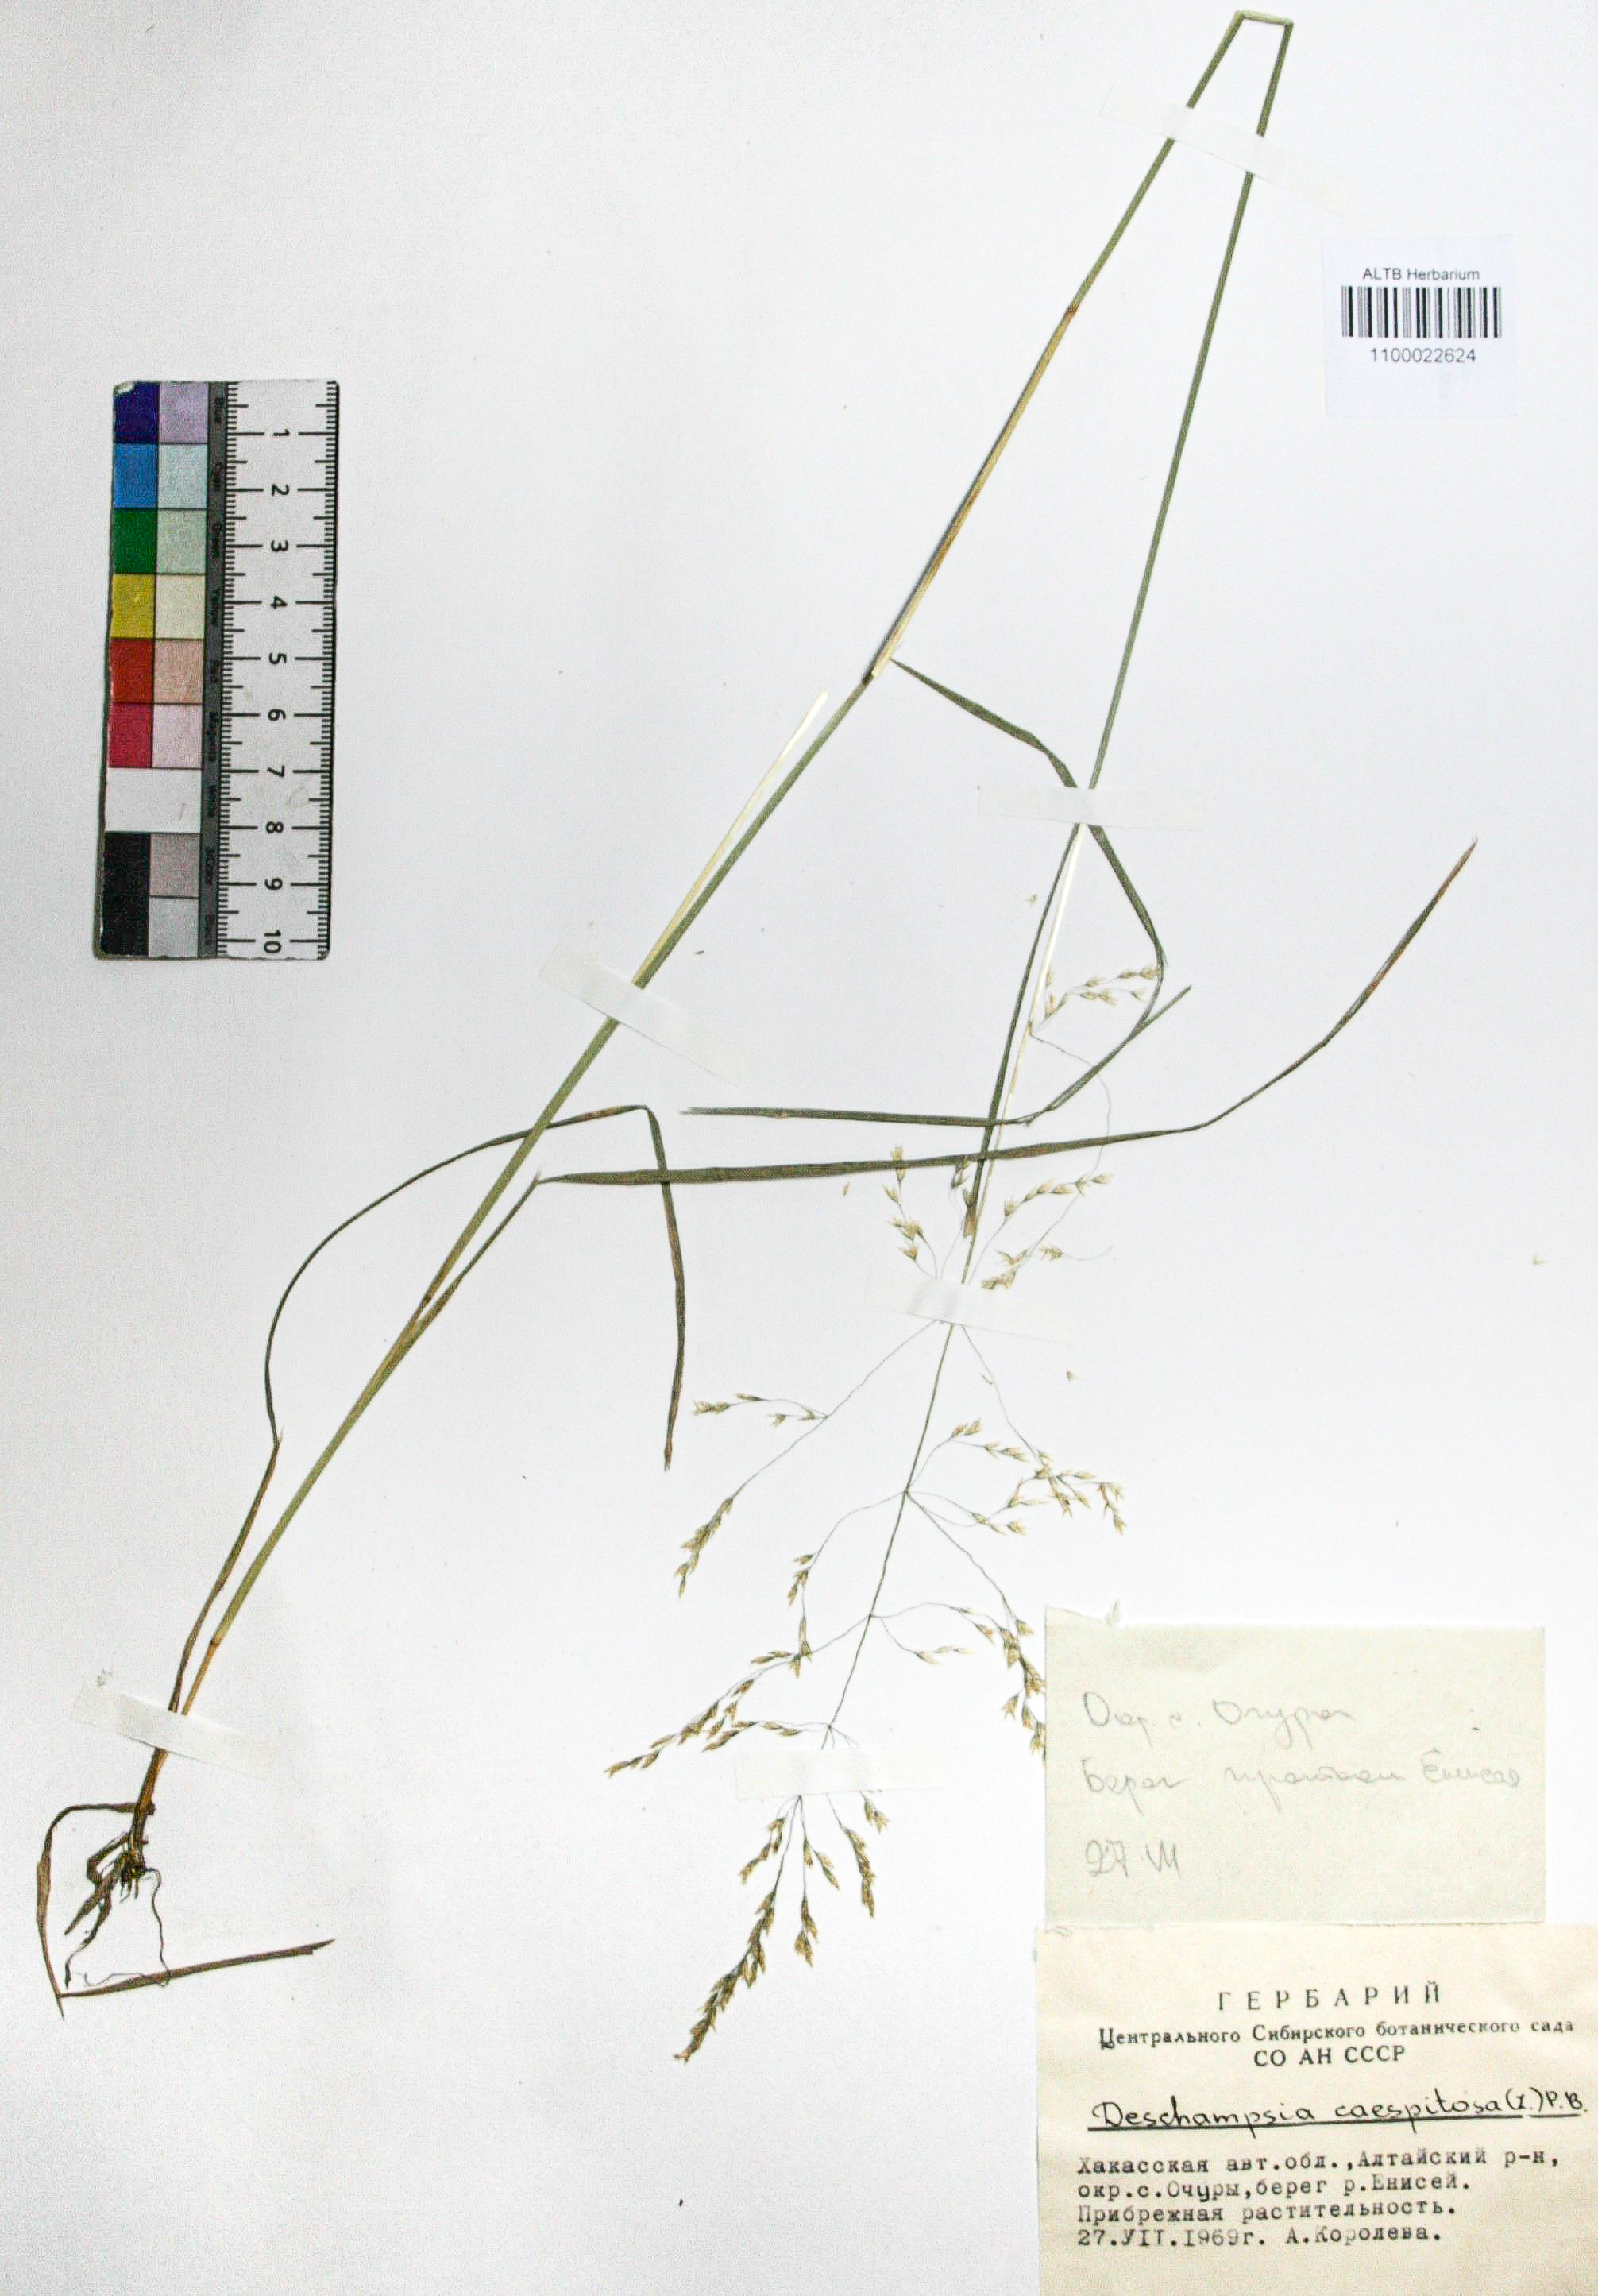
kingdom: Plantae
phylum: Tracheophyta
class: Liliopsida
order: Poales
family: Poaceae
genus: Deschampsia
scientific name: Deschampsia cespitosa
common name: Tufted hair-grass
